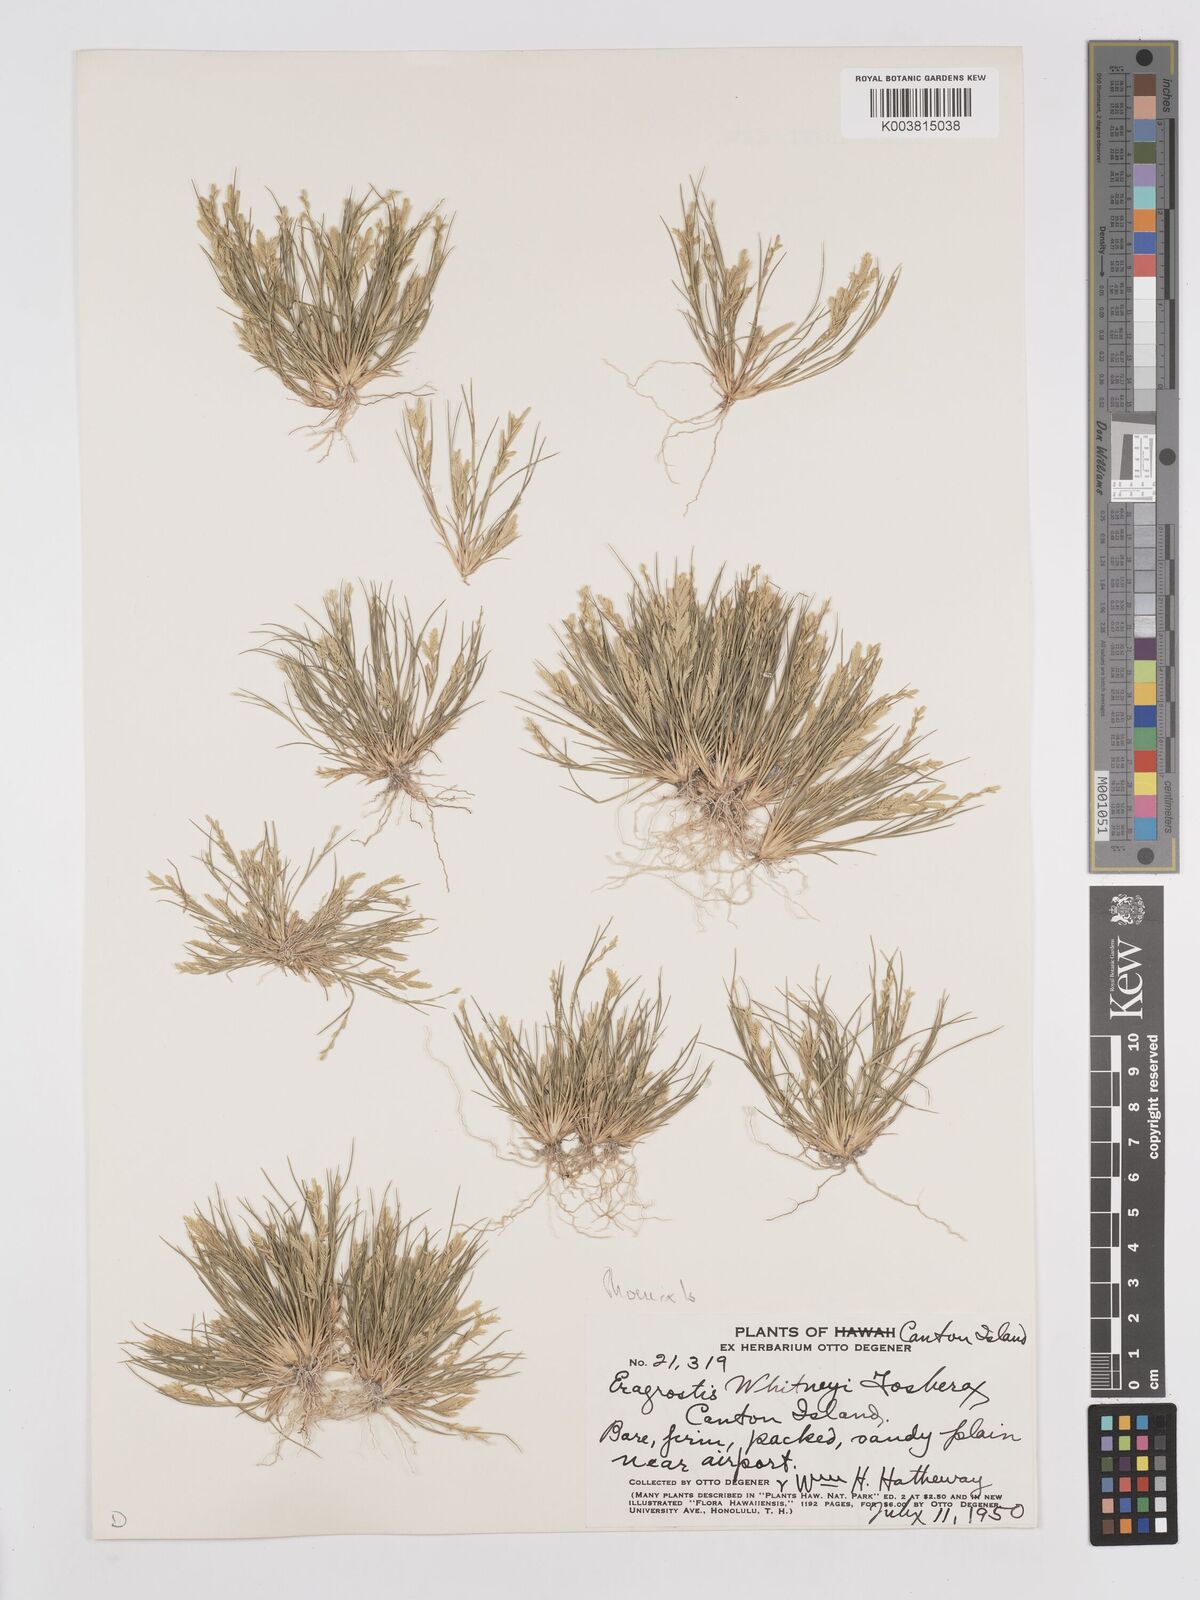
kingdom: Plantae
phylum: Tracheophyta
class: Liliopsida
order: Poales
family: Poaceae
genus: Eragrostis
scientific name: Eragrostis paupera
